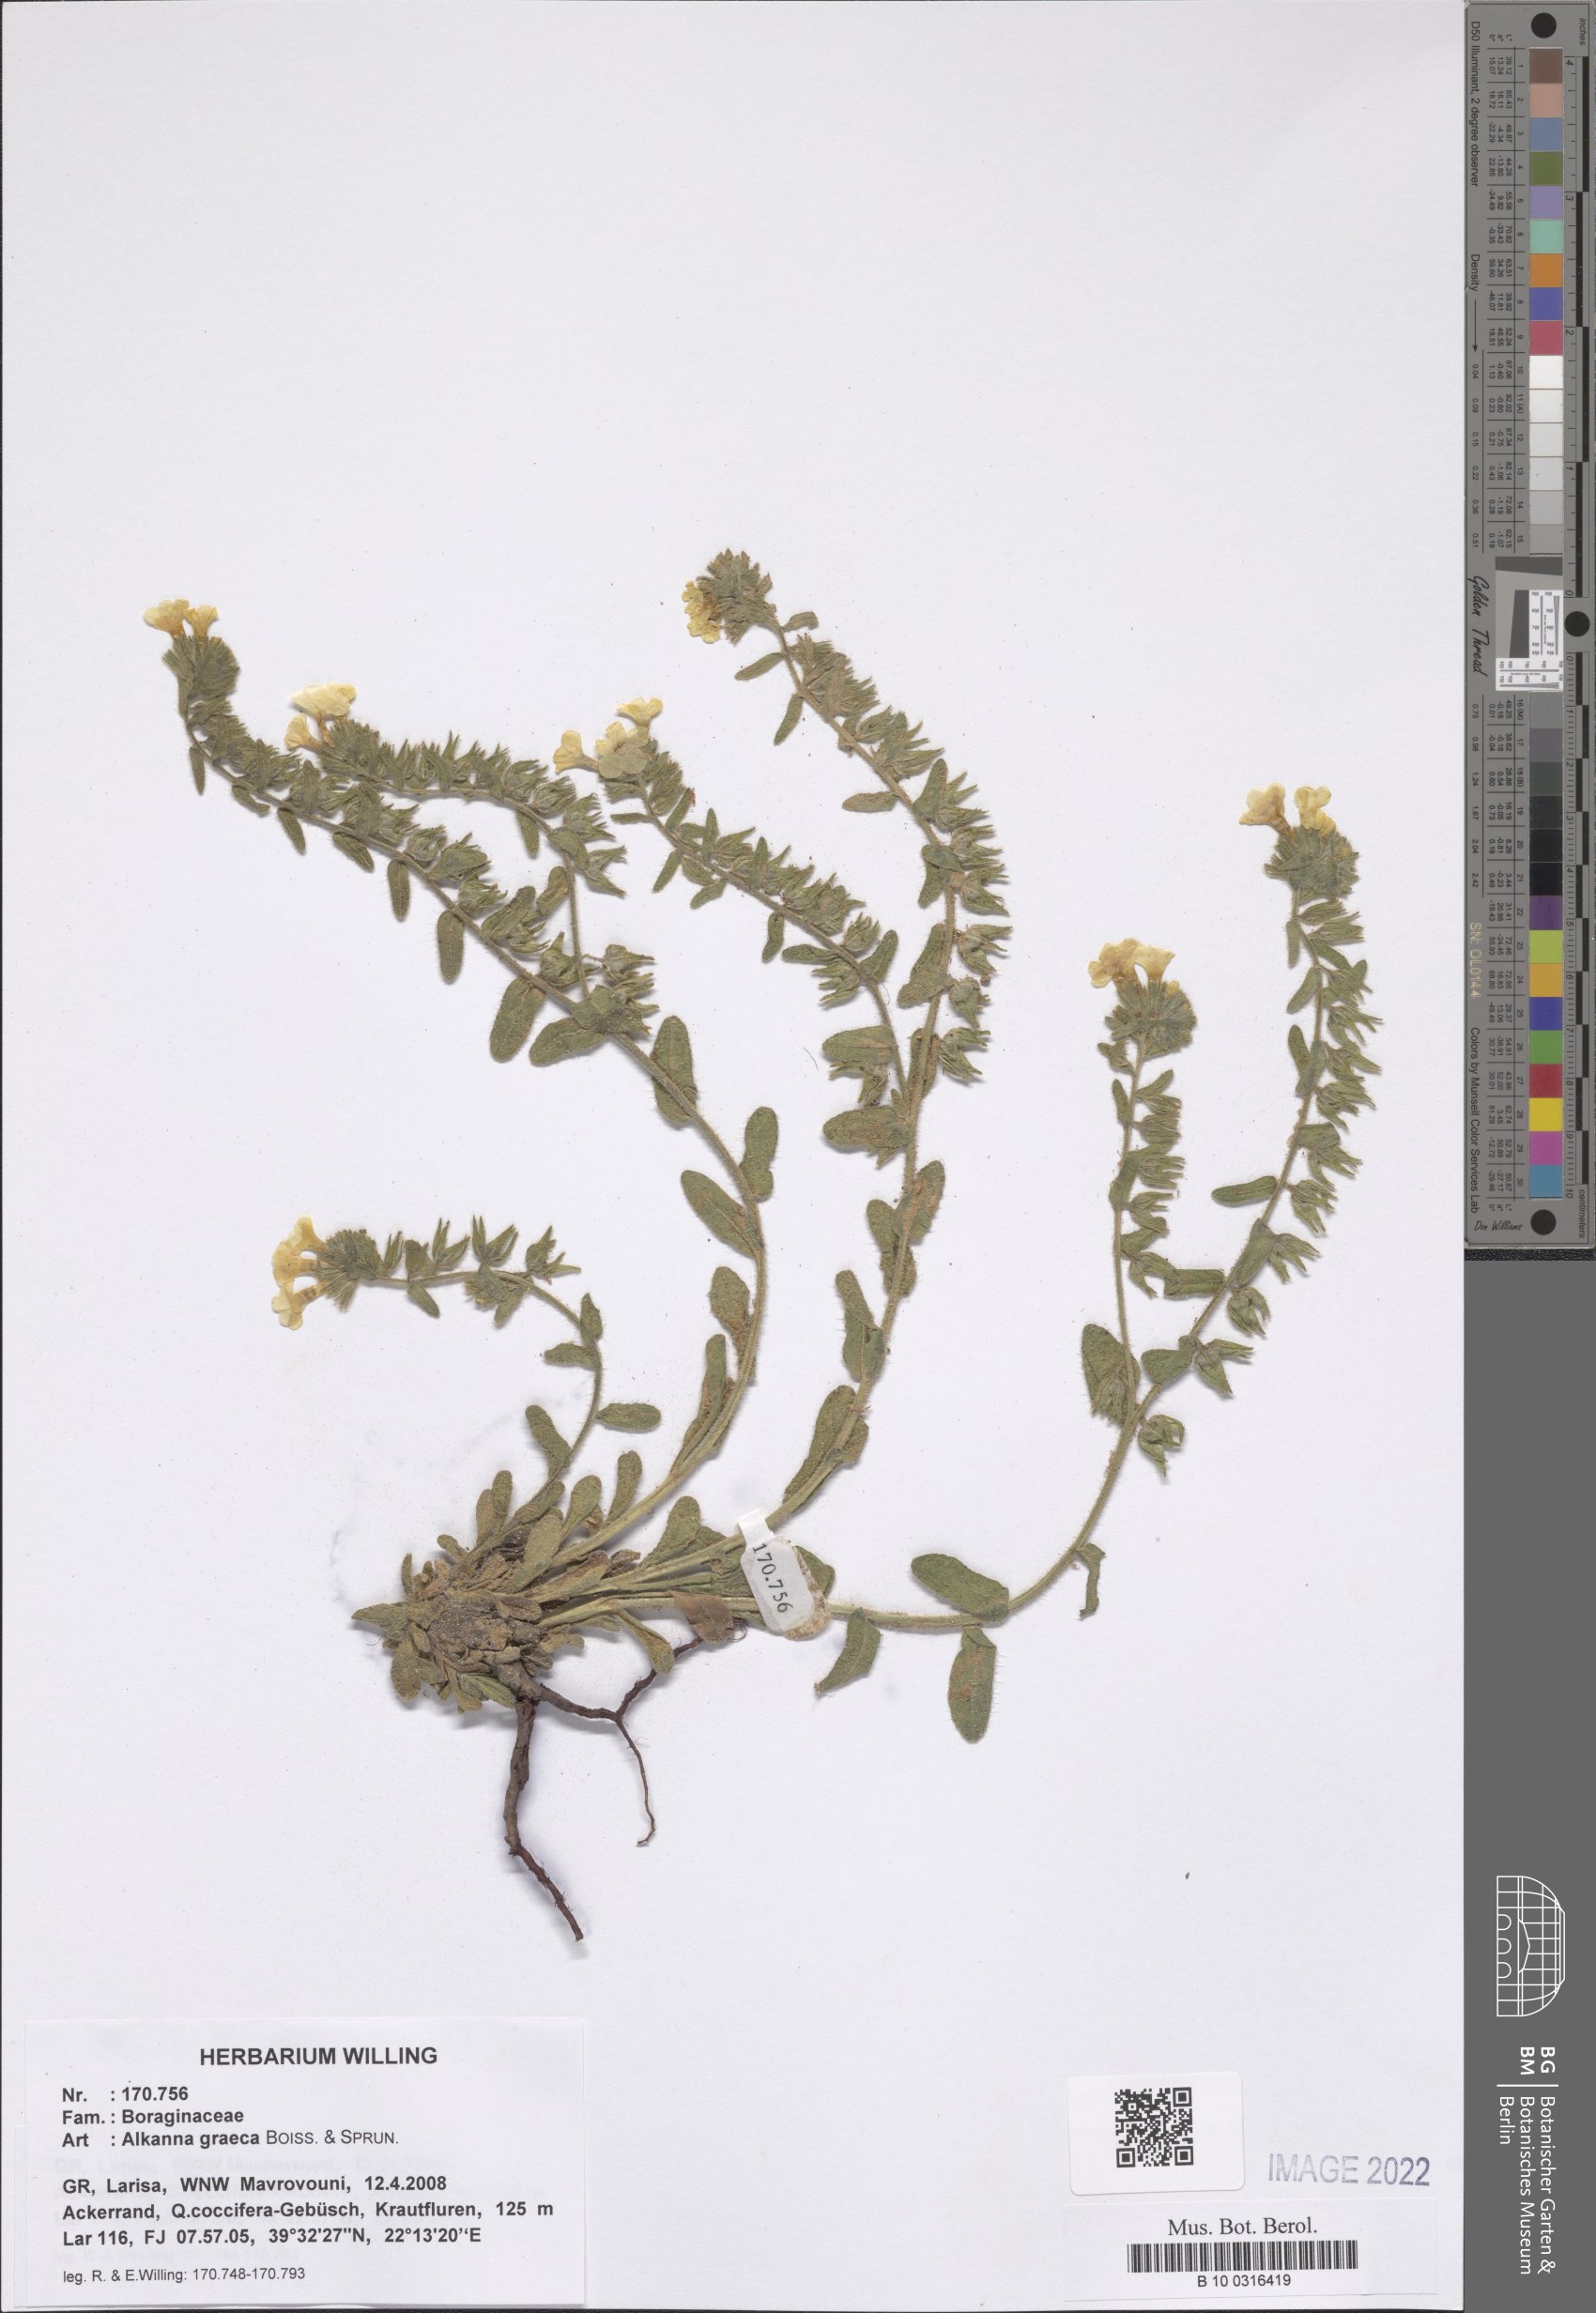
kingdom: Plantae
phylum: Tracheophyta
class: Magnoliopsida
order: Boraginales
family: Boraginaceae
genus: Alkanna
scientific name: Alkanna graeca
